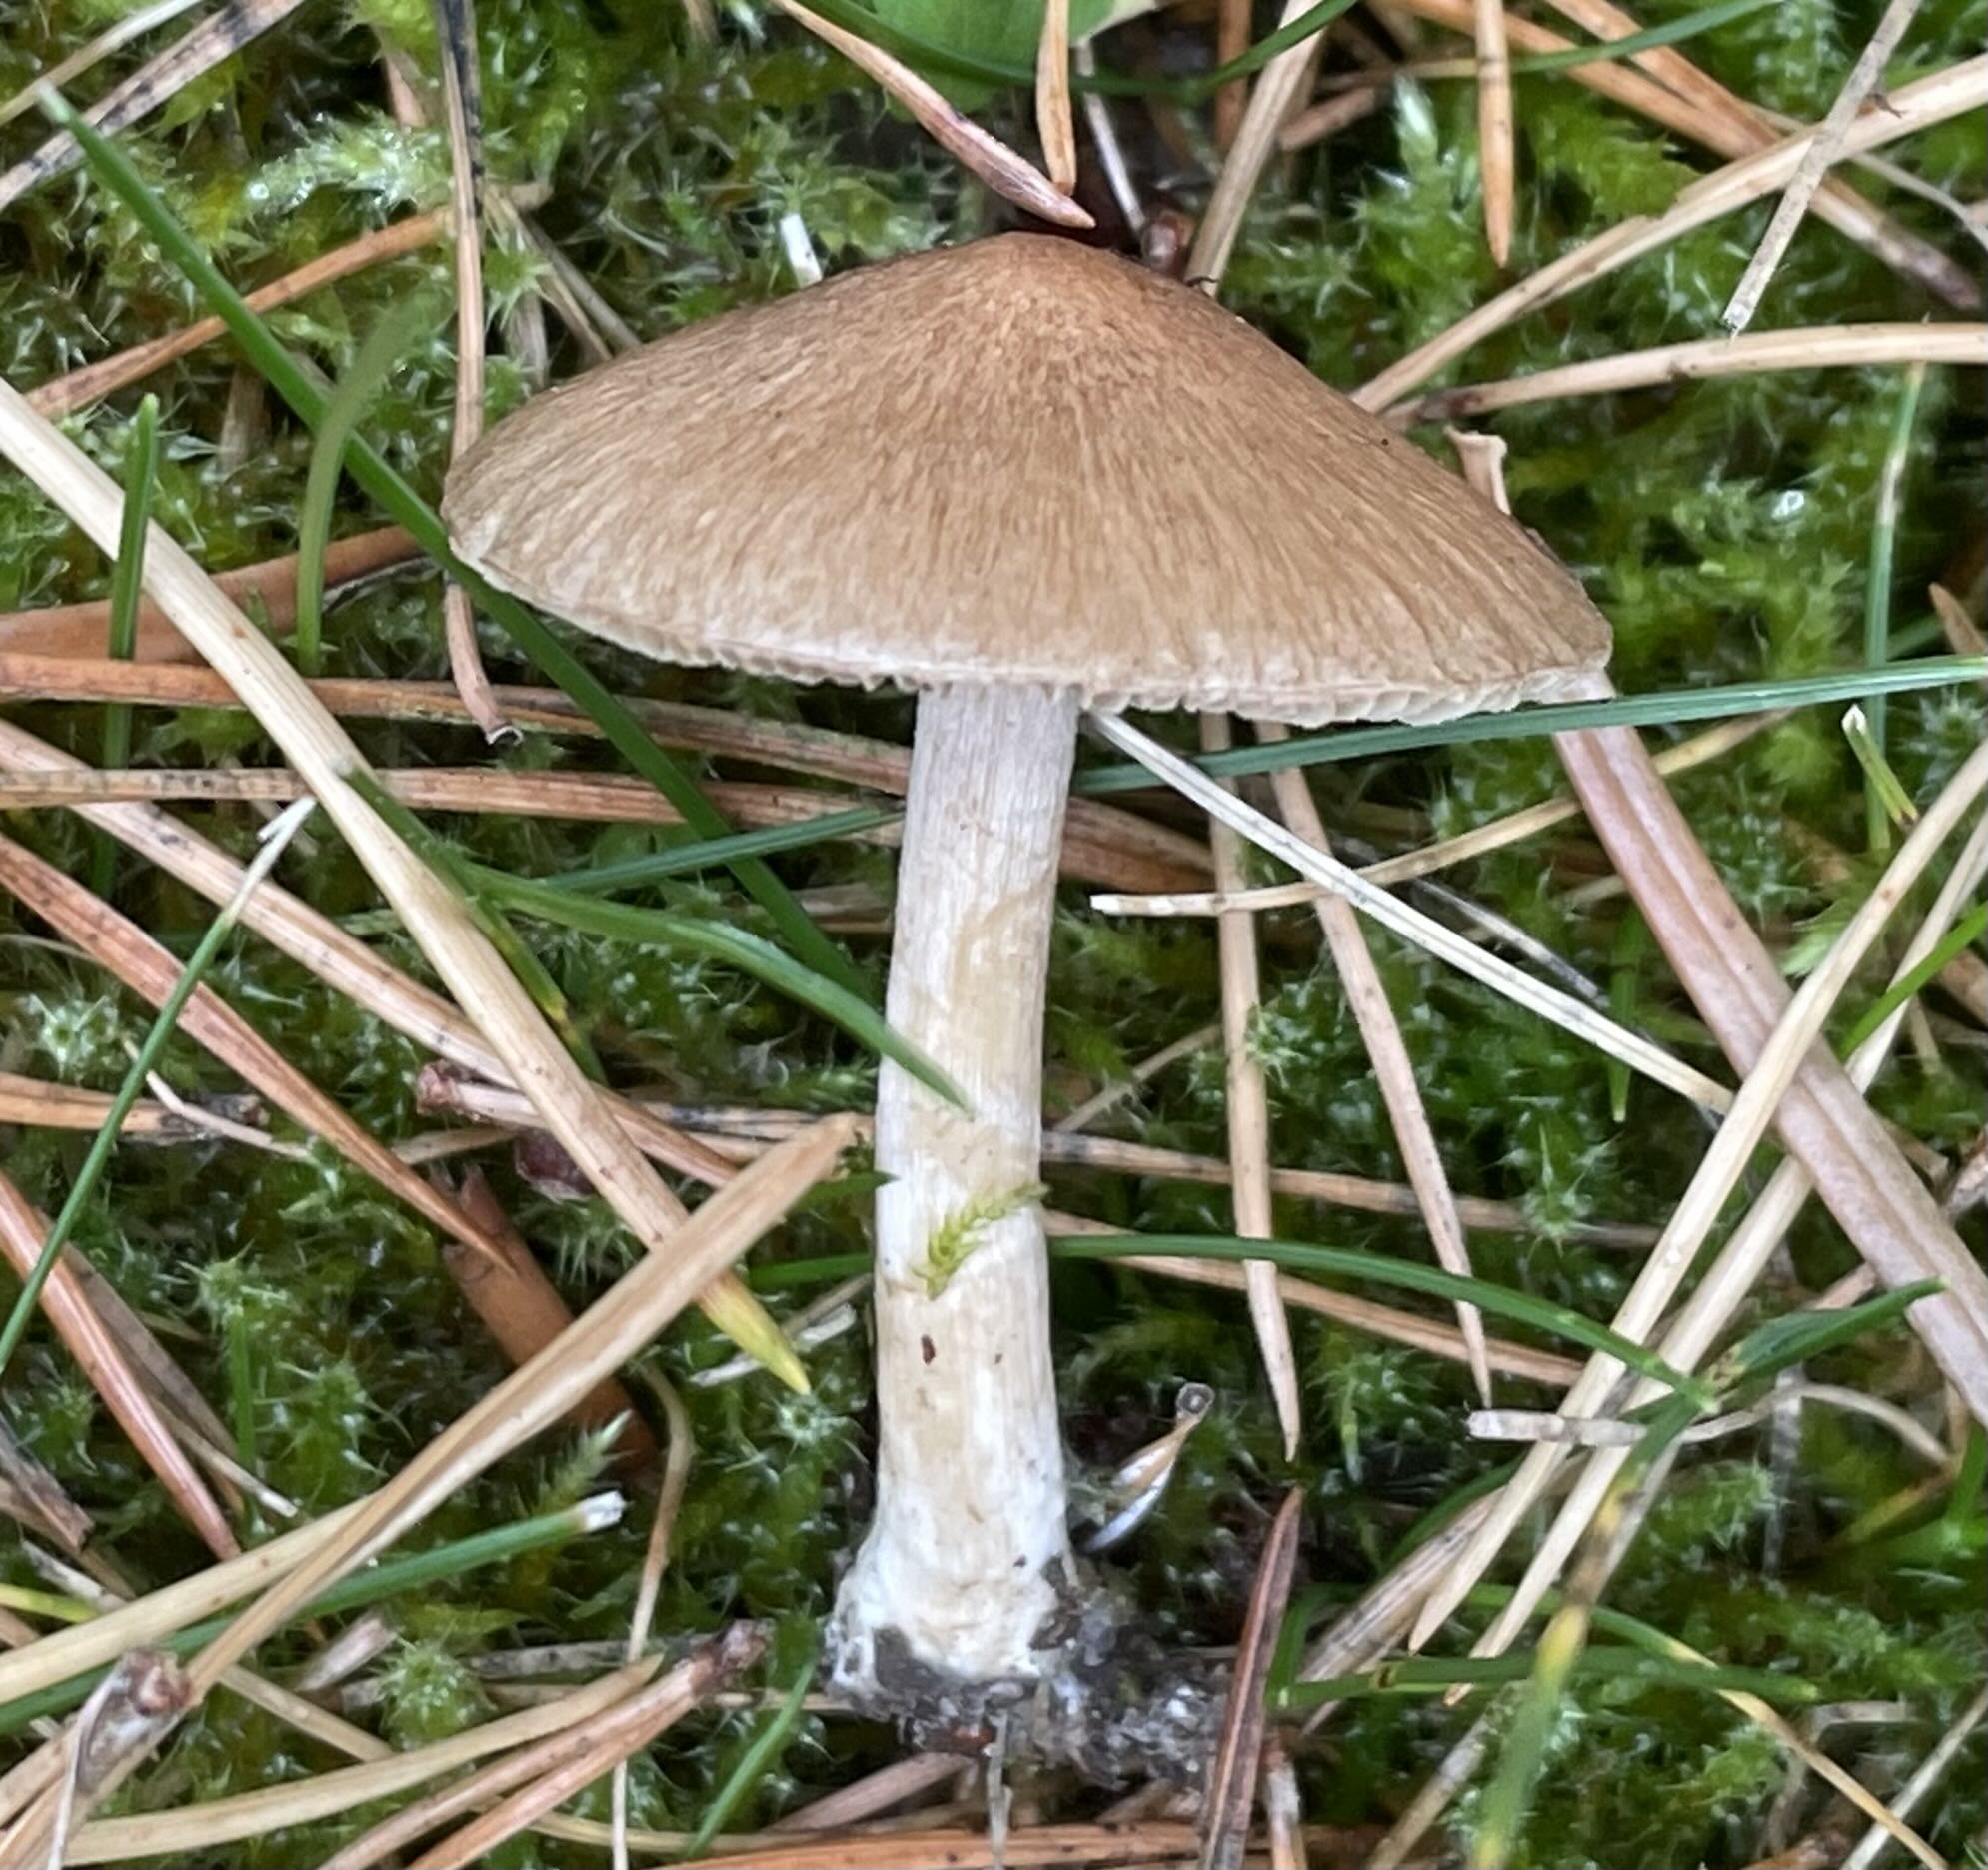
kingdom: Fungi
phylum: Basidiomycota
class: Agaricomycetes
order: Agaricales
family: Inocybaceae
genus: Inocybe
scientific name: Inocybe
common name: trævlhat
